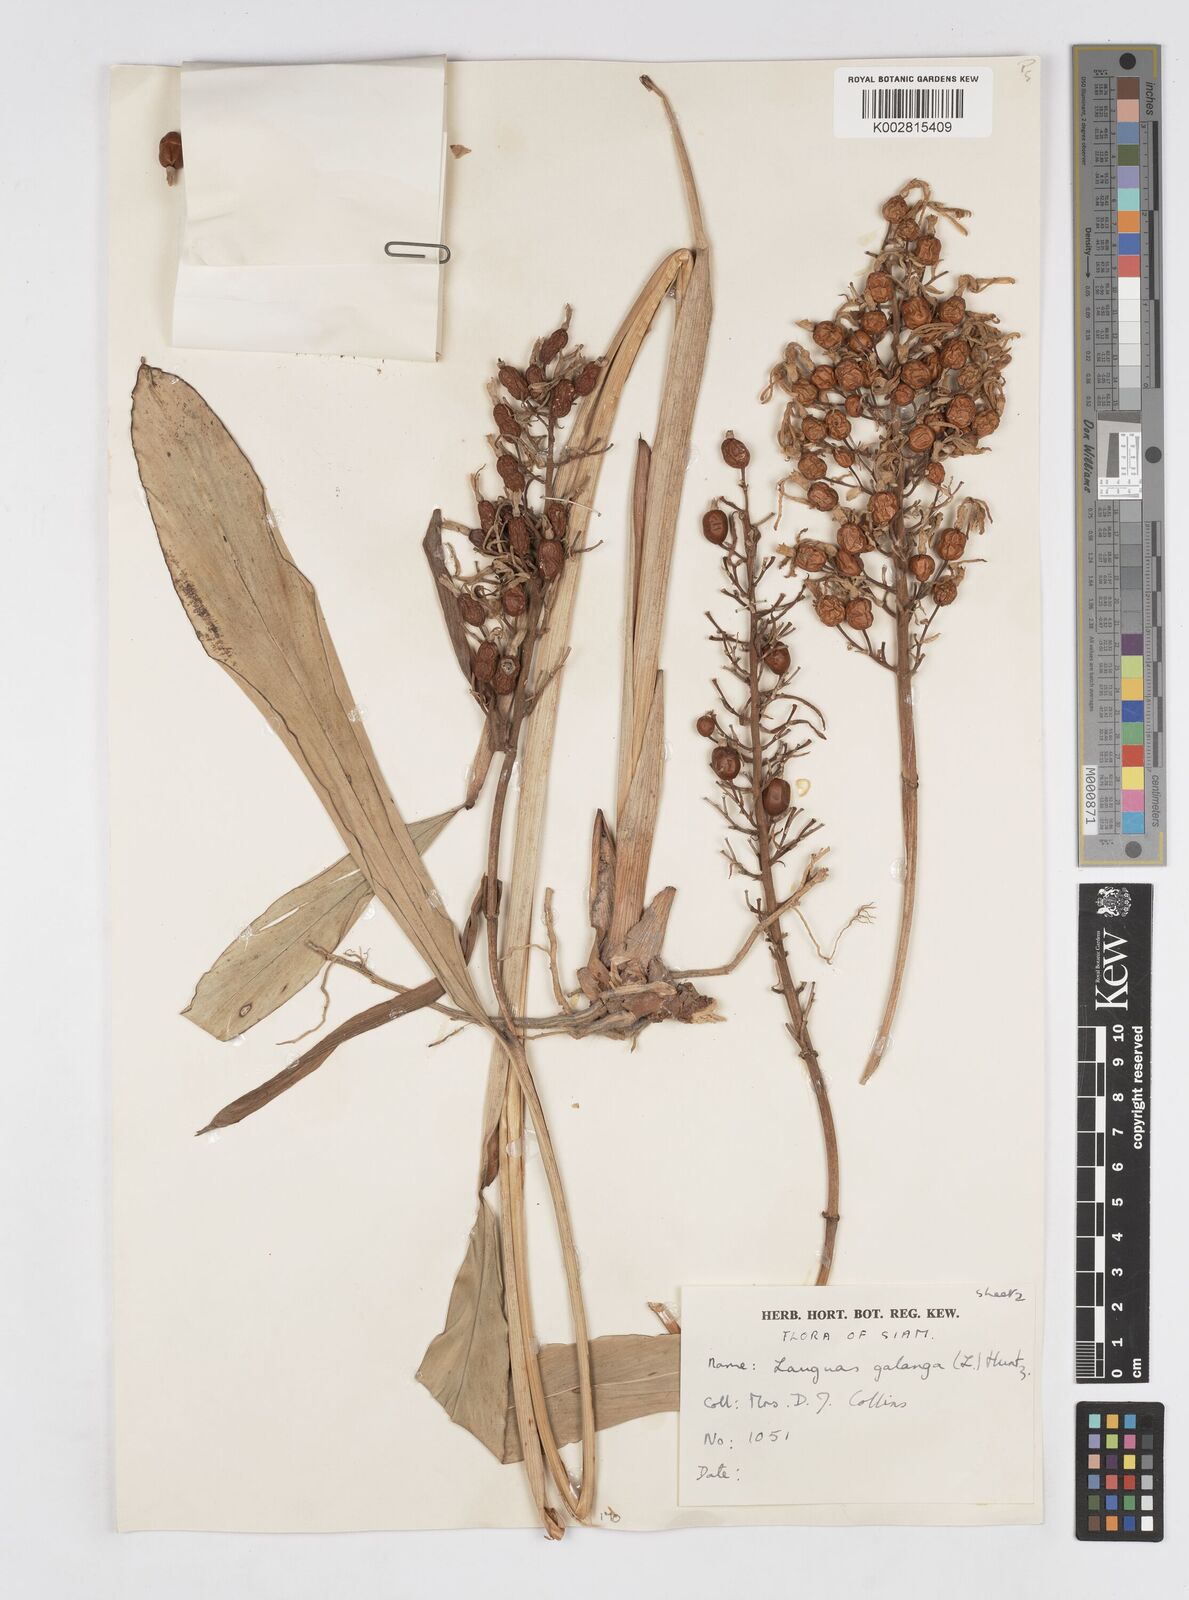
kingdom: Plantae
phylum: Tracheophyta
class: Liliopsida
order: Zingiberales
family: Zingiberaceae
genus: Alpinia
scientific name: Alpinia galanga
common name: Siamese-ginger
